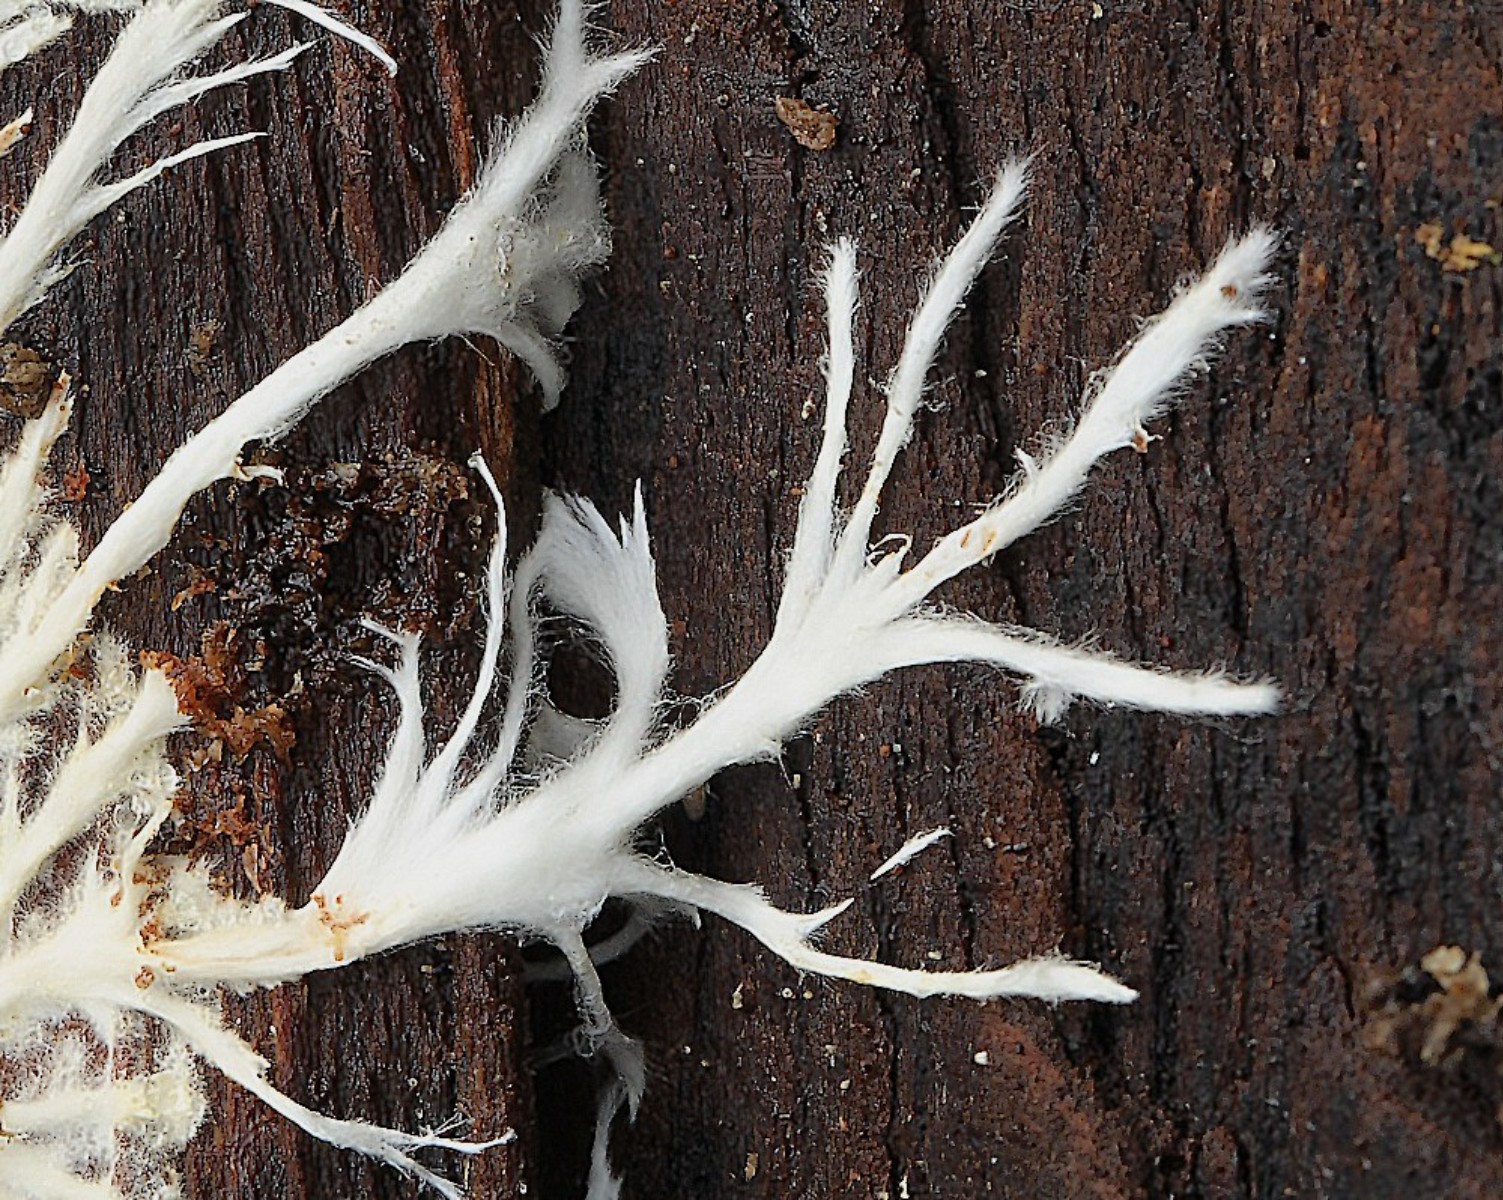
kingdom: Fungi
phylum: Basidiomycota
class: Agaricomycetes
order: Corticiales
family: Corticiaceae
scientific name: Corticiaceae
